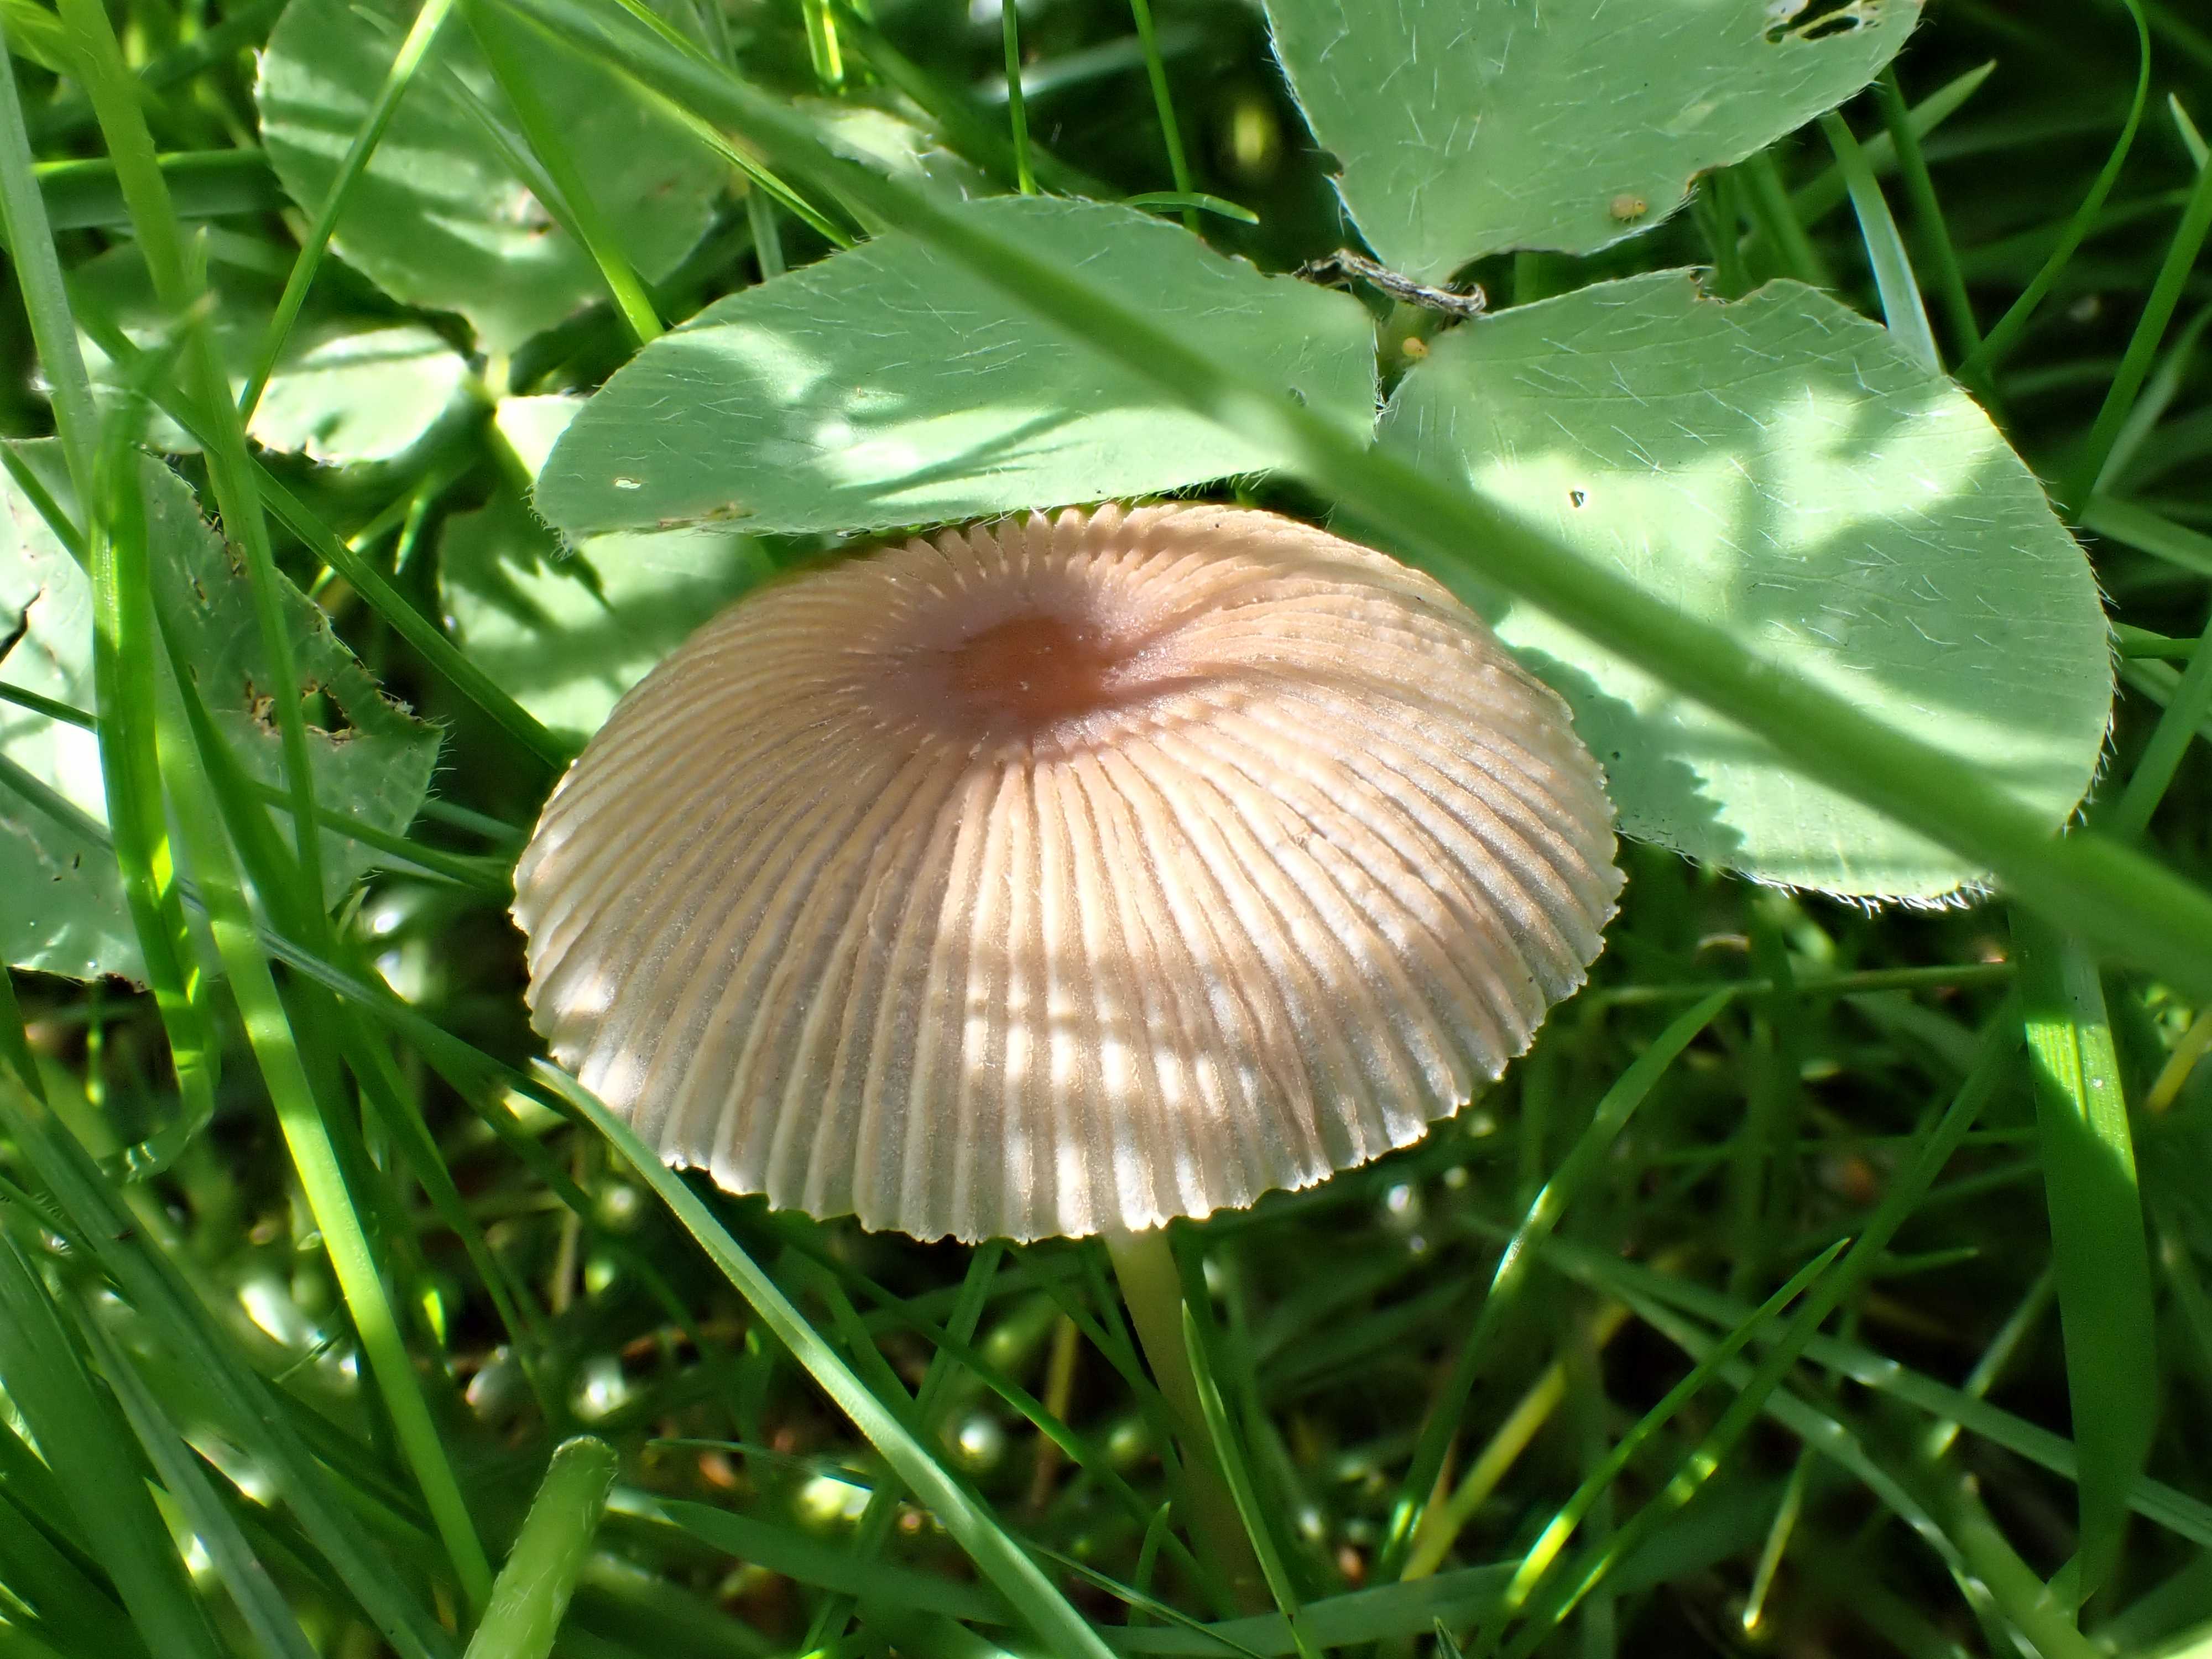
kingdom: Fungi
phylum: Basidiomycota
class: Agaricomycetes
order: Agaricales
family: Psathyrellaceae
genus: Parasola
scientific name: Parasola
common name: hjulhat
